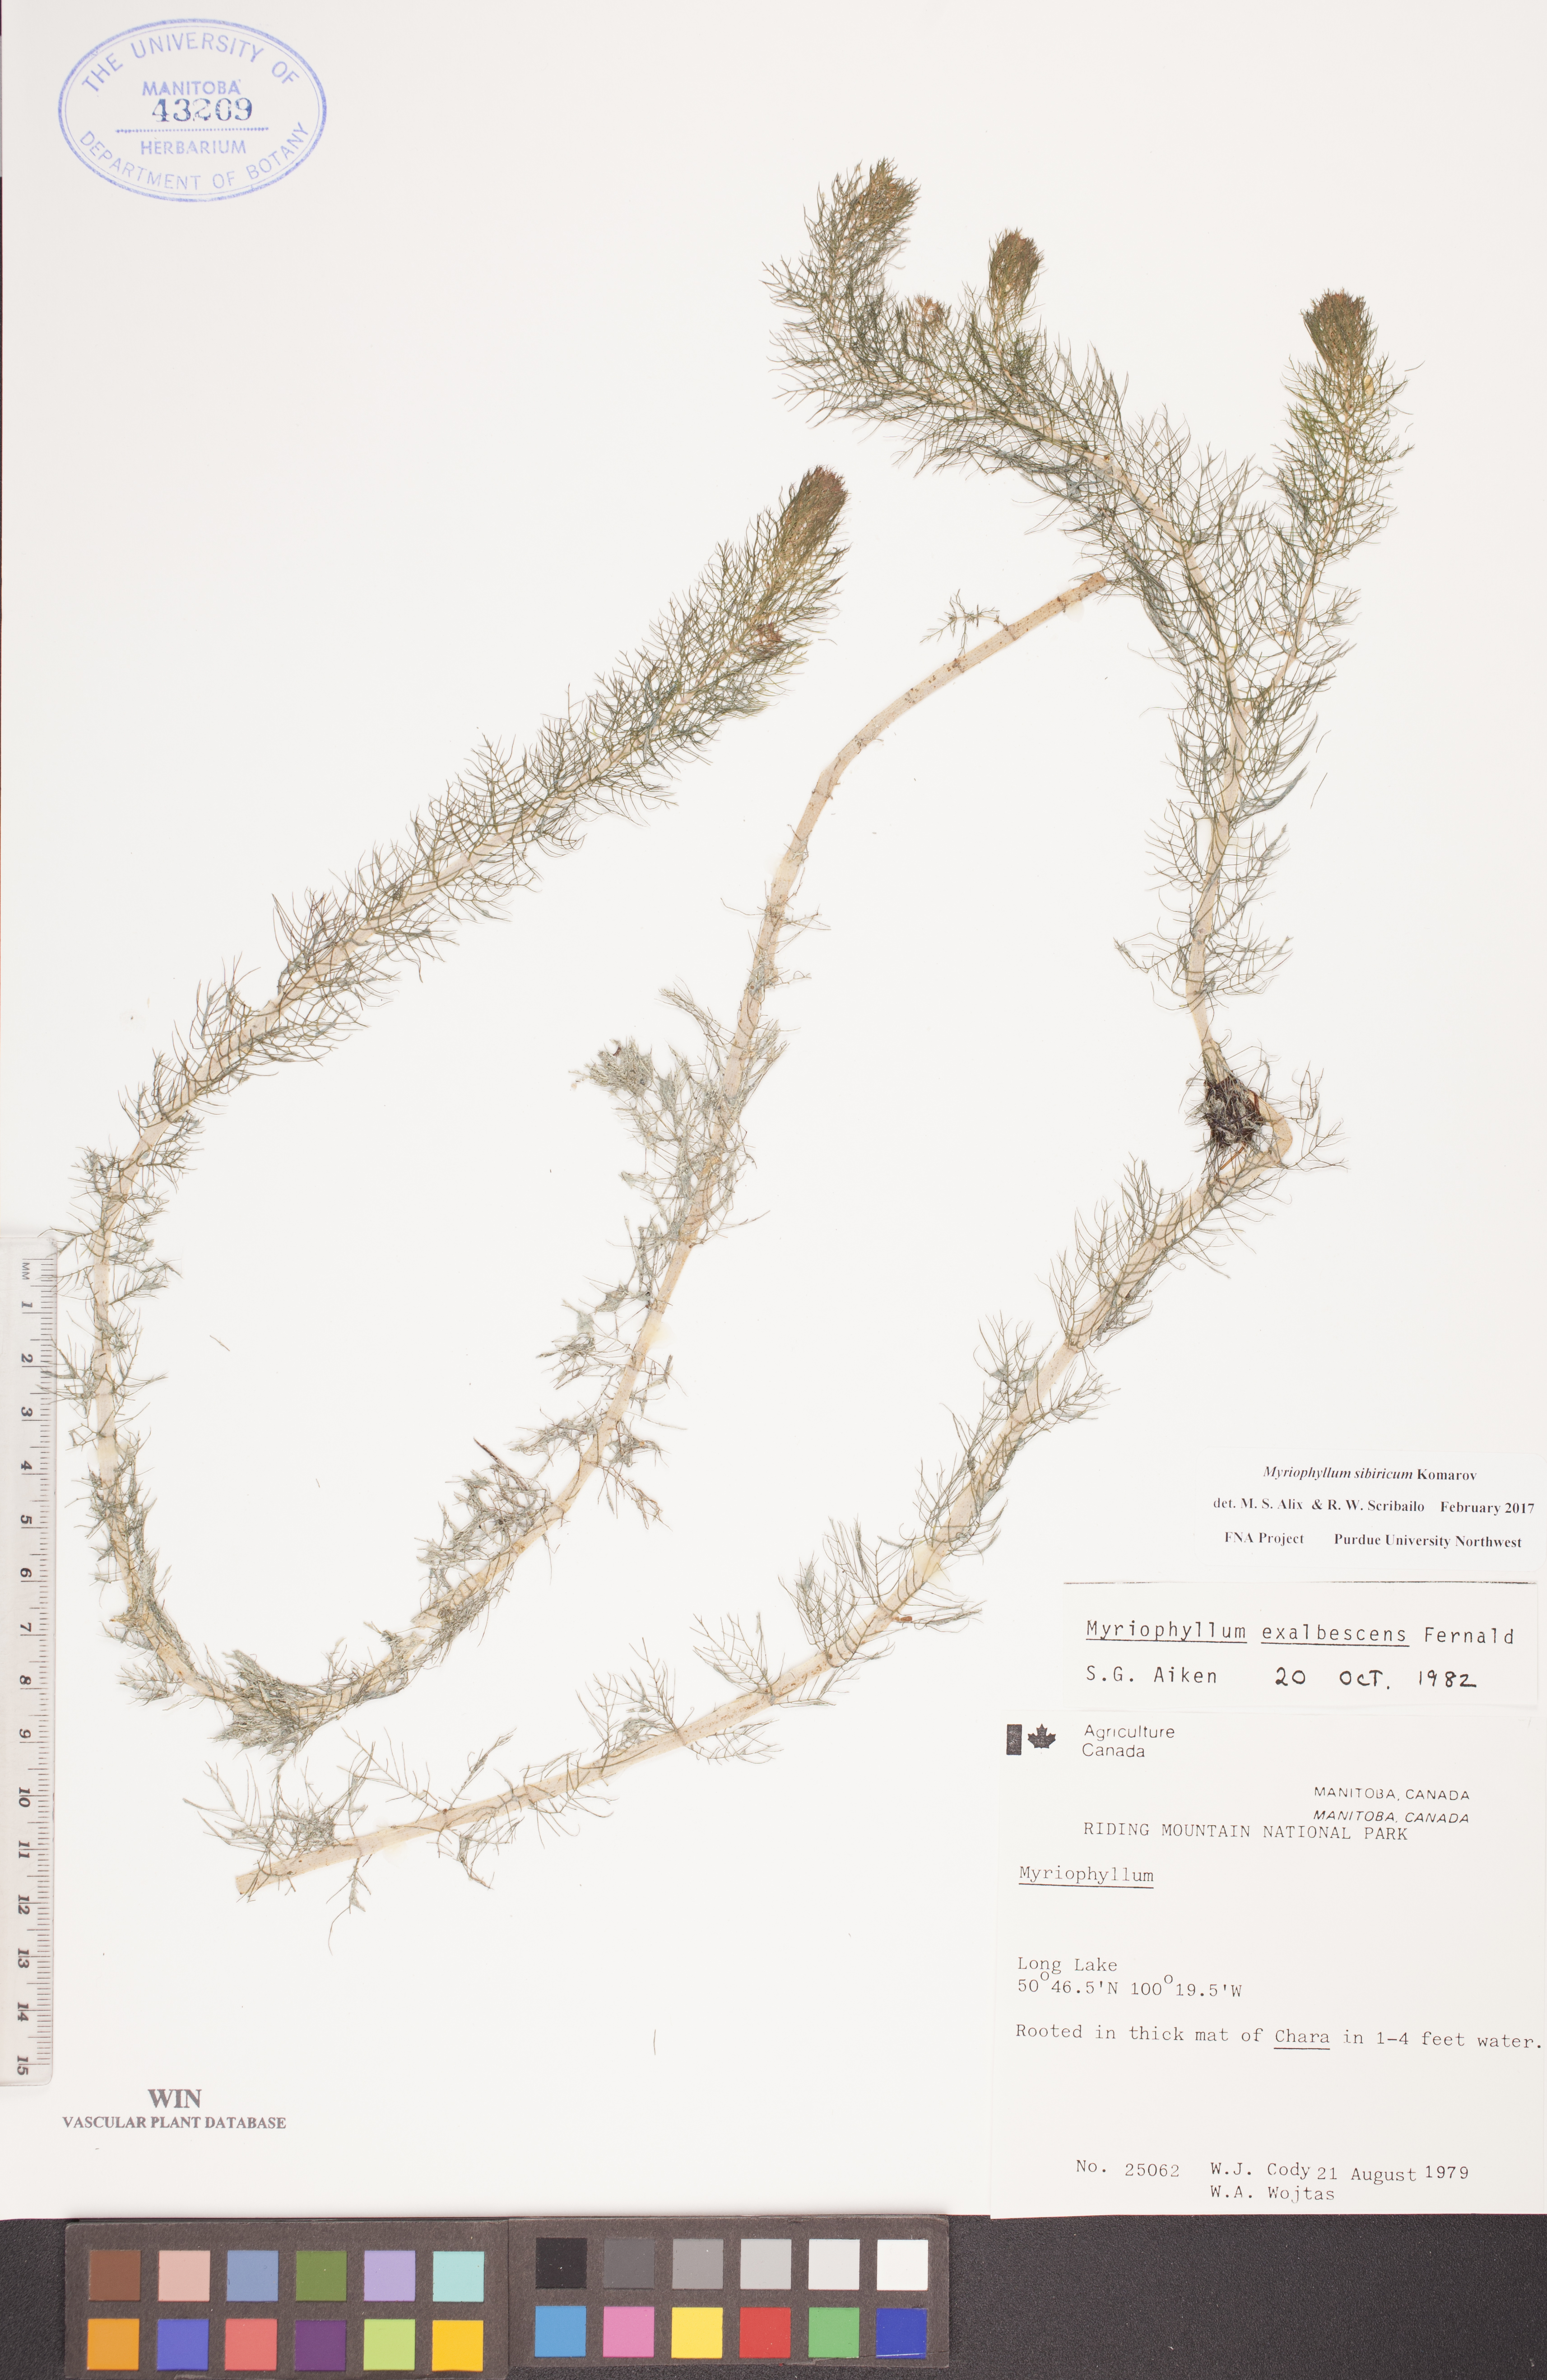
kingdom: Plantae
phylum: Tracheophyta
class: Magnoliopsida
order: Saxifragales
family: Haloragaceae
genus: Myriophyllum
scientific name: Myriophyllum sibiricum
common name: Siberian water-milfoil
